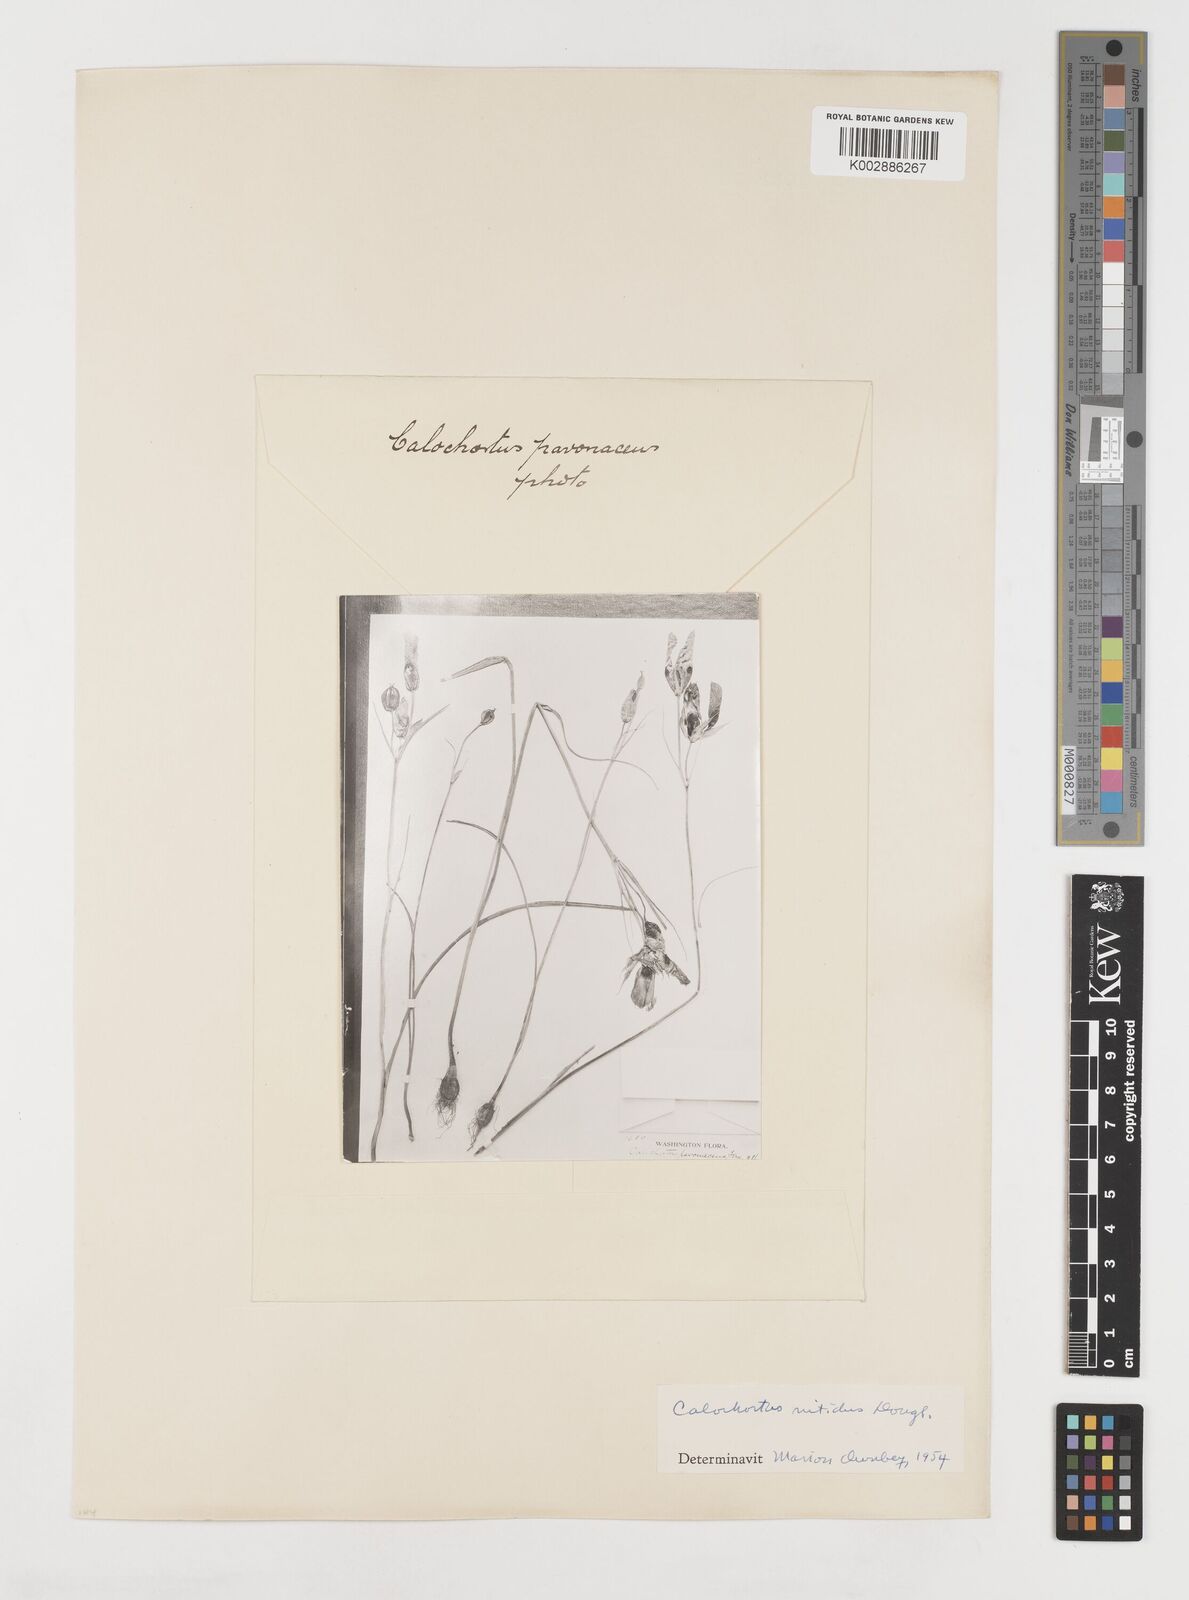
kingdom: Plantae
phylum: Tracheophyta
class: Liliopsida
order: Liliales
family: Liliaceae
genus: Calochortus
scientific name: Calochortus monophyllus
